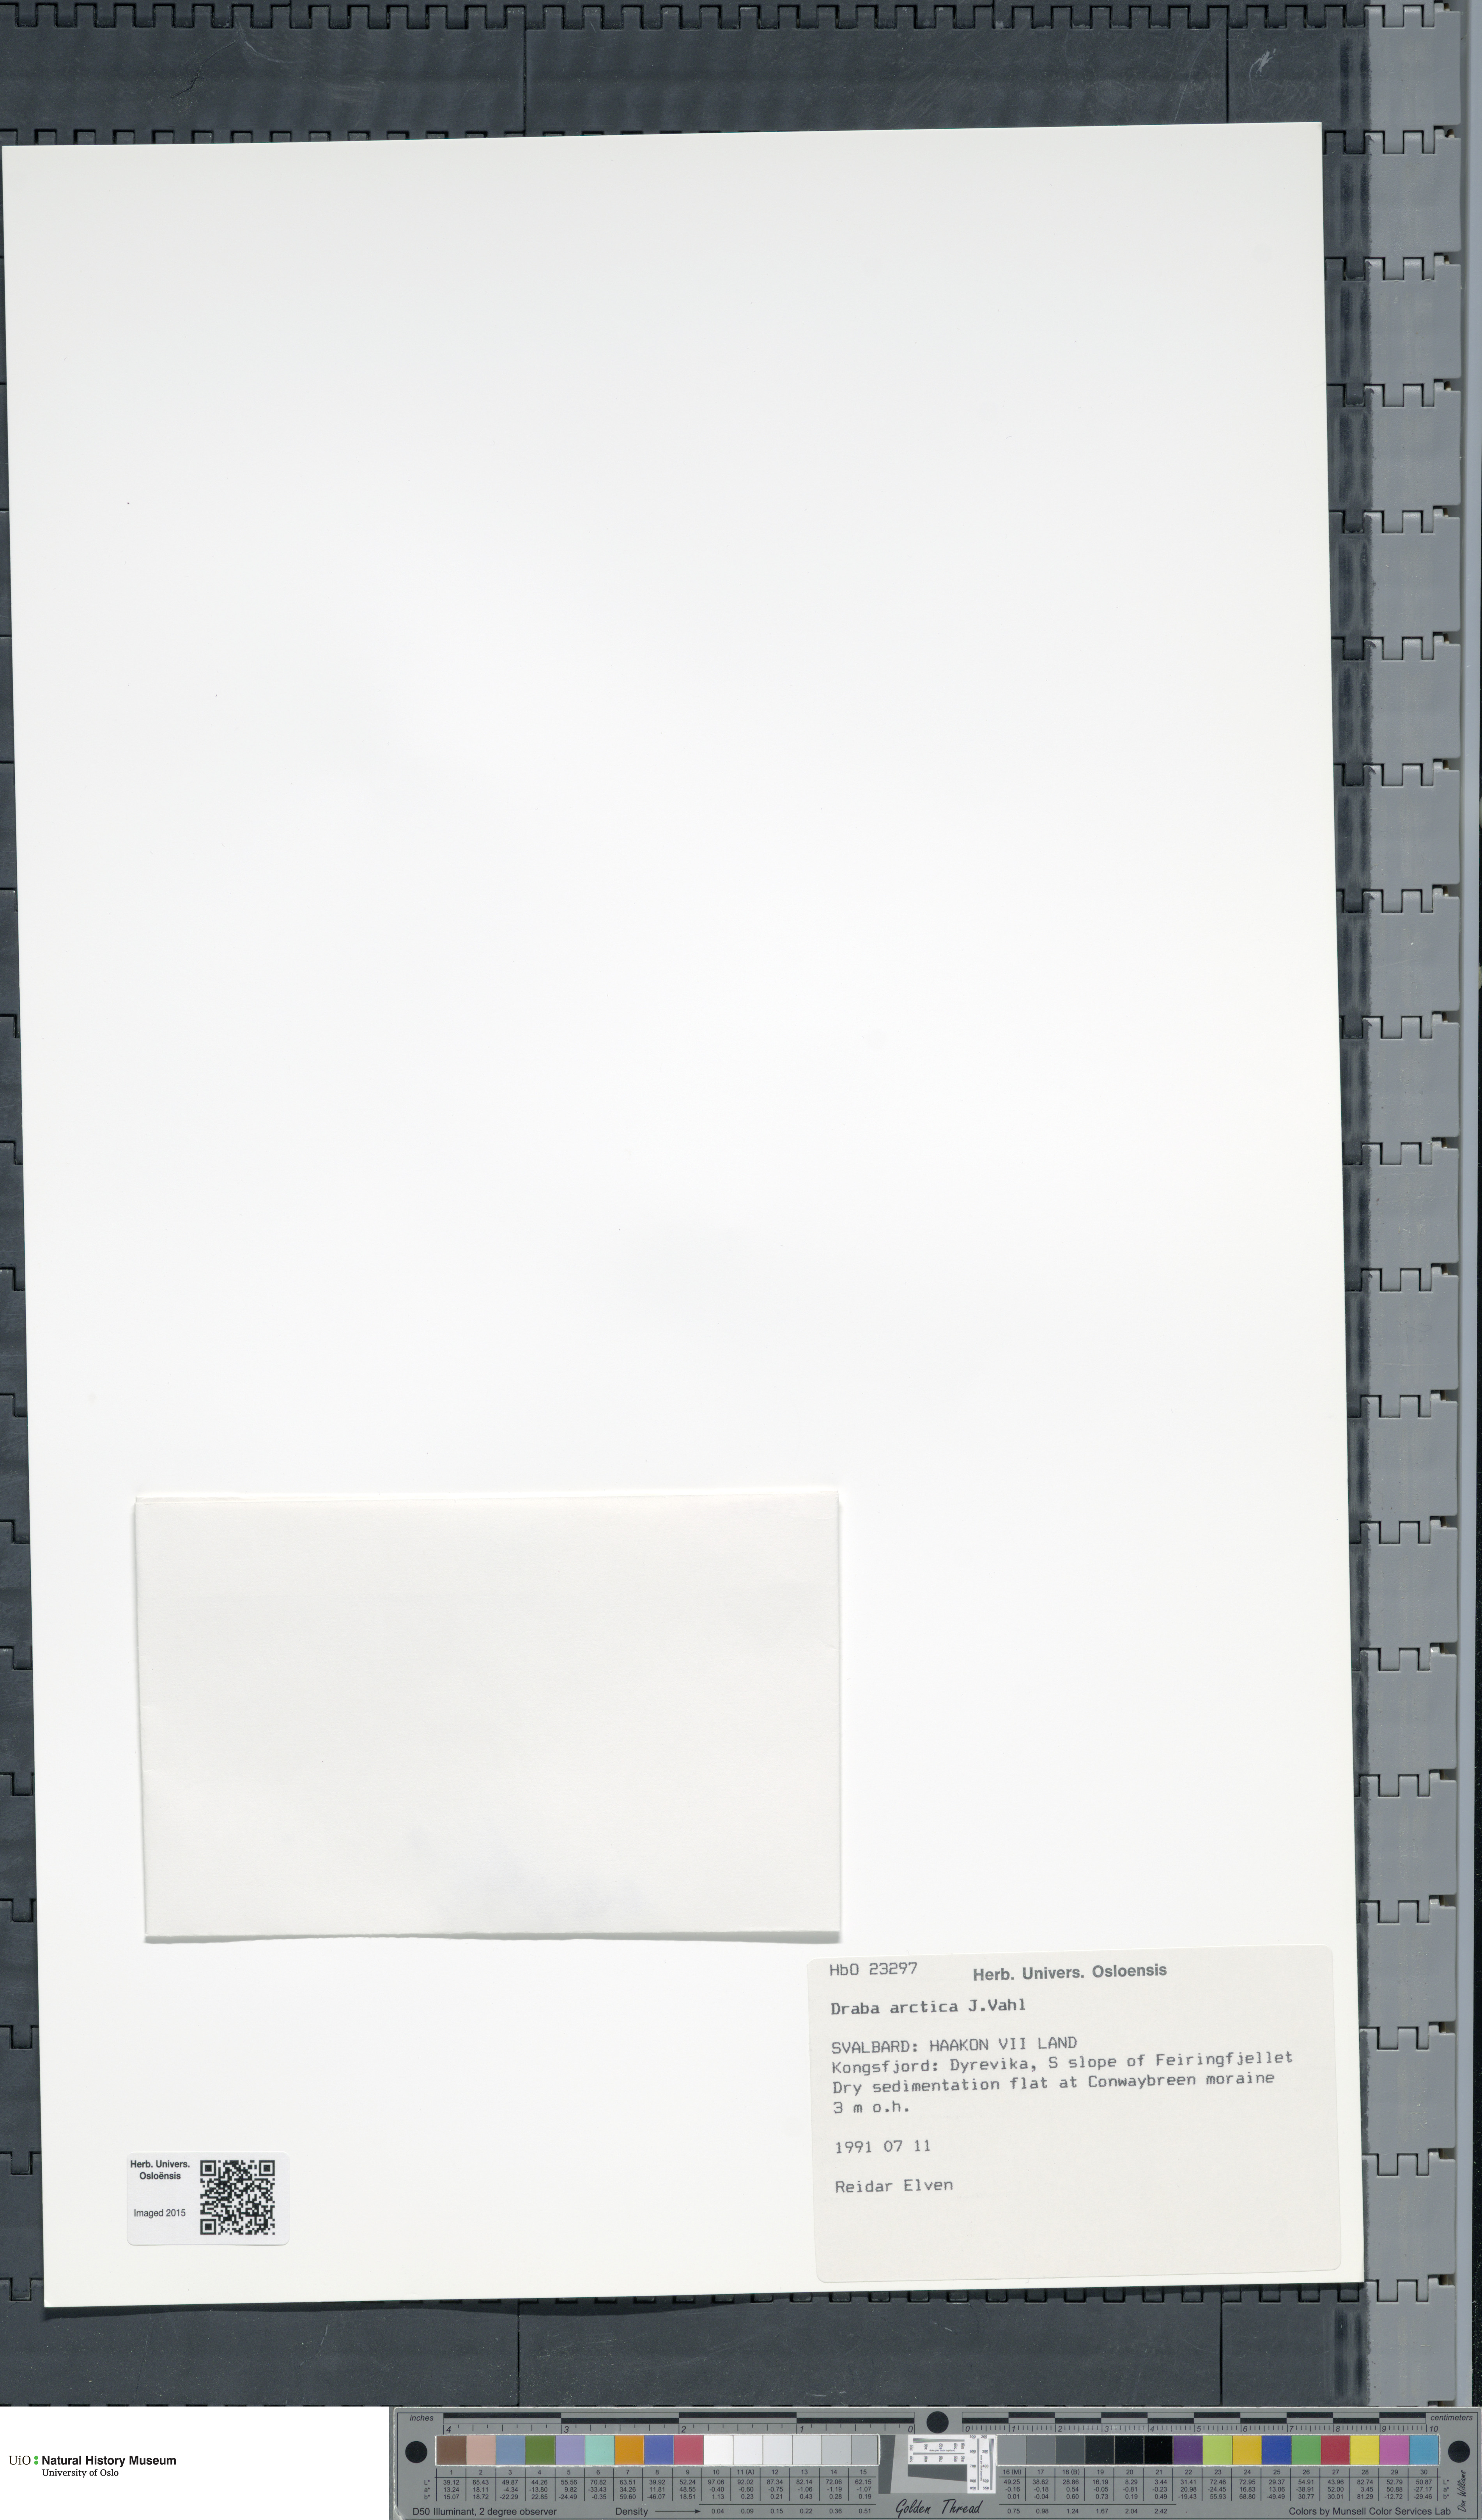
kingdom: Plantae
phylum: Tracheophyta
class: Magnoliopsida
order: Brassicales
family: Brassicaceae
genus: Draba
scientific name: Draba arctica
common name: Arctic draba
